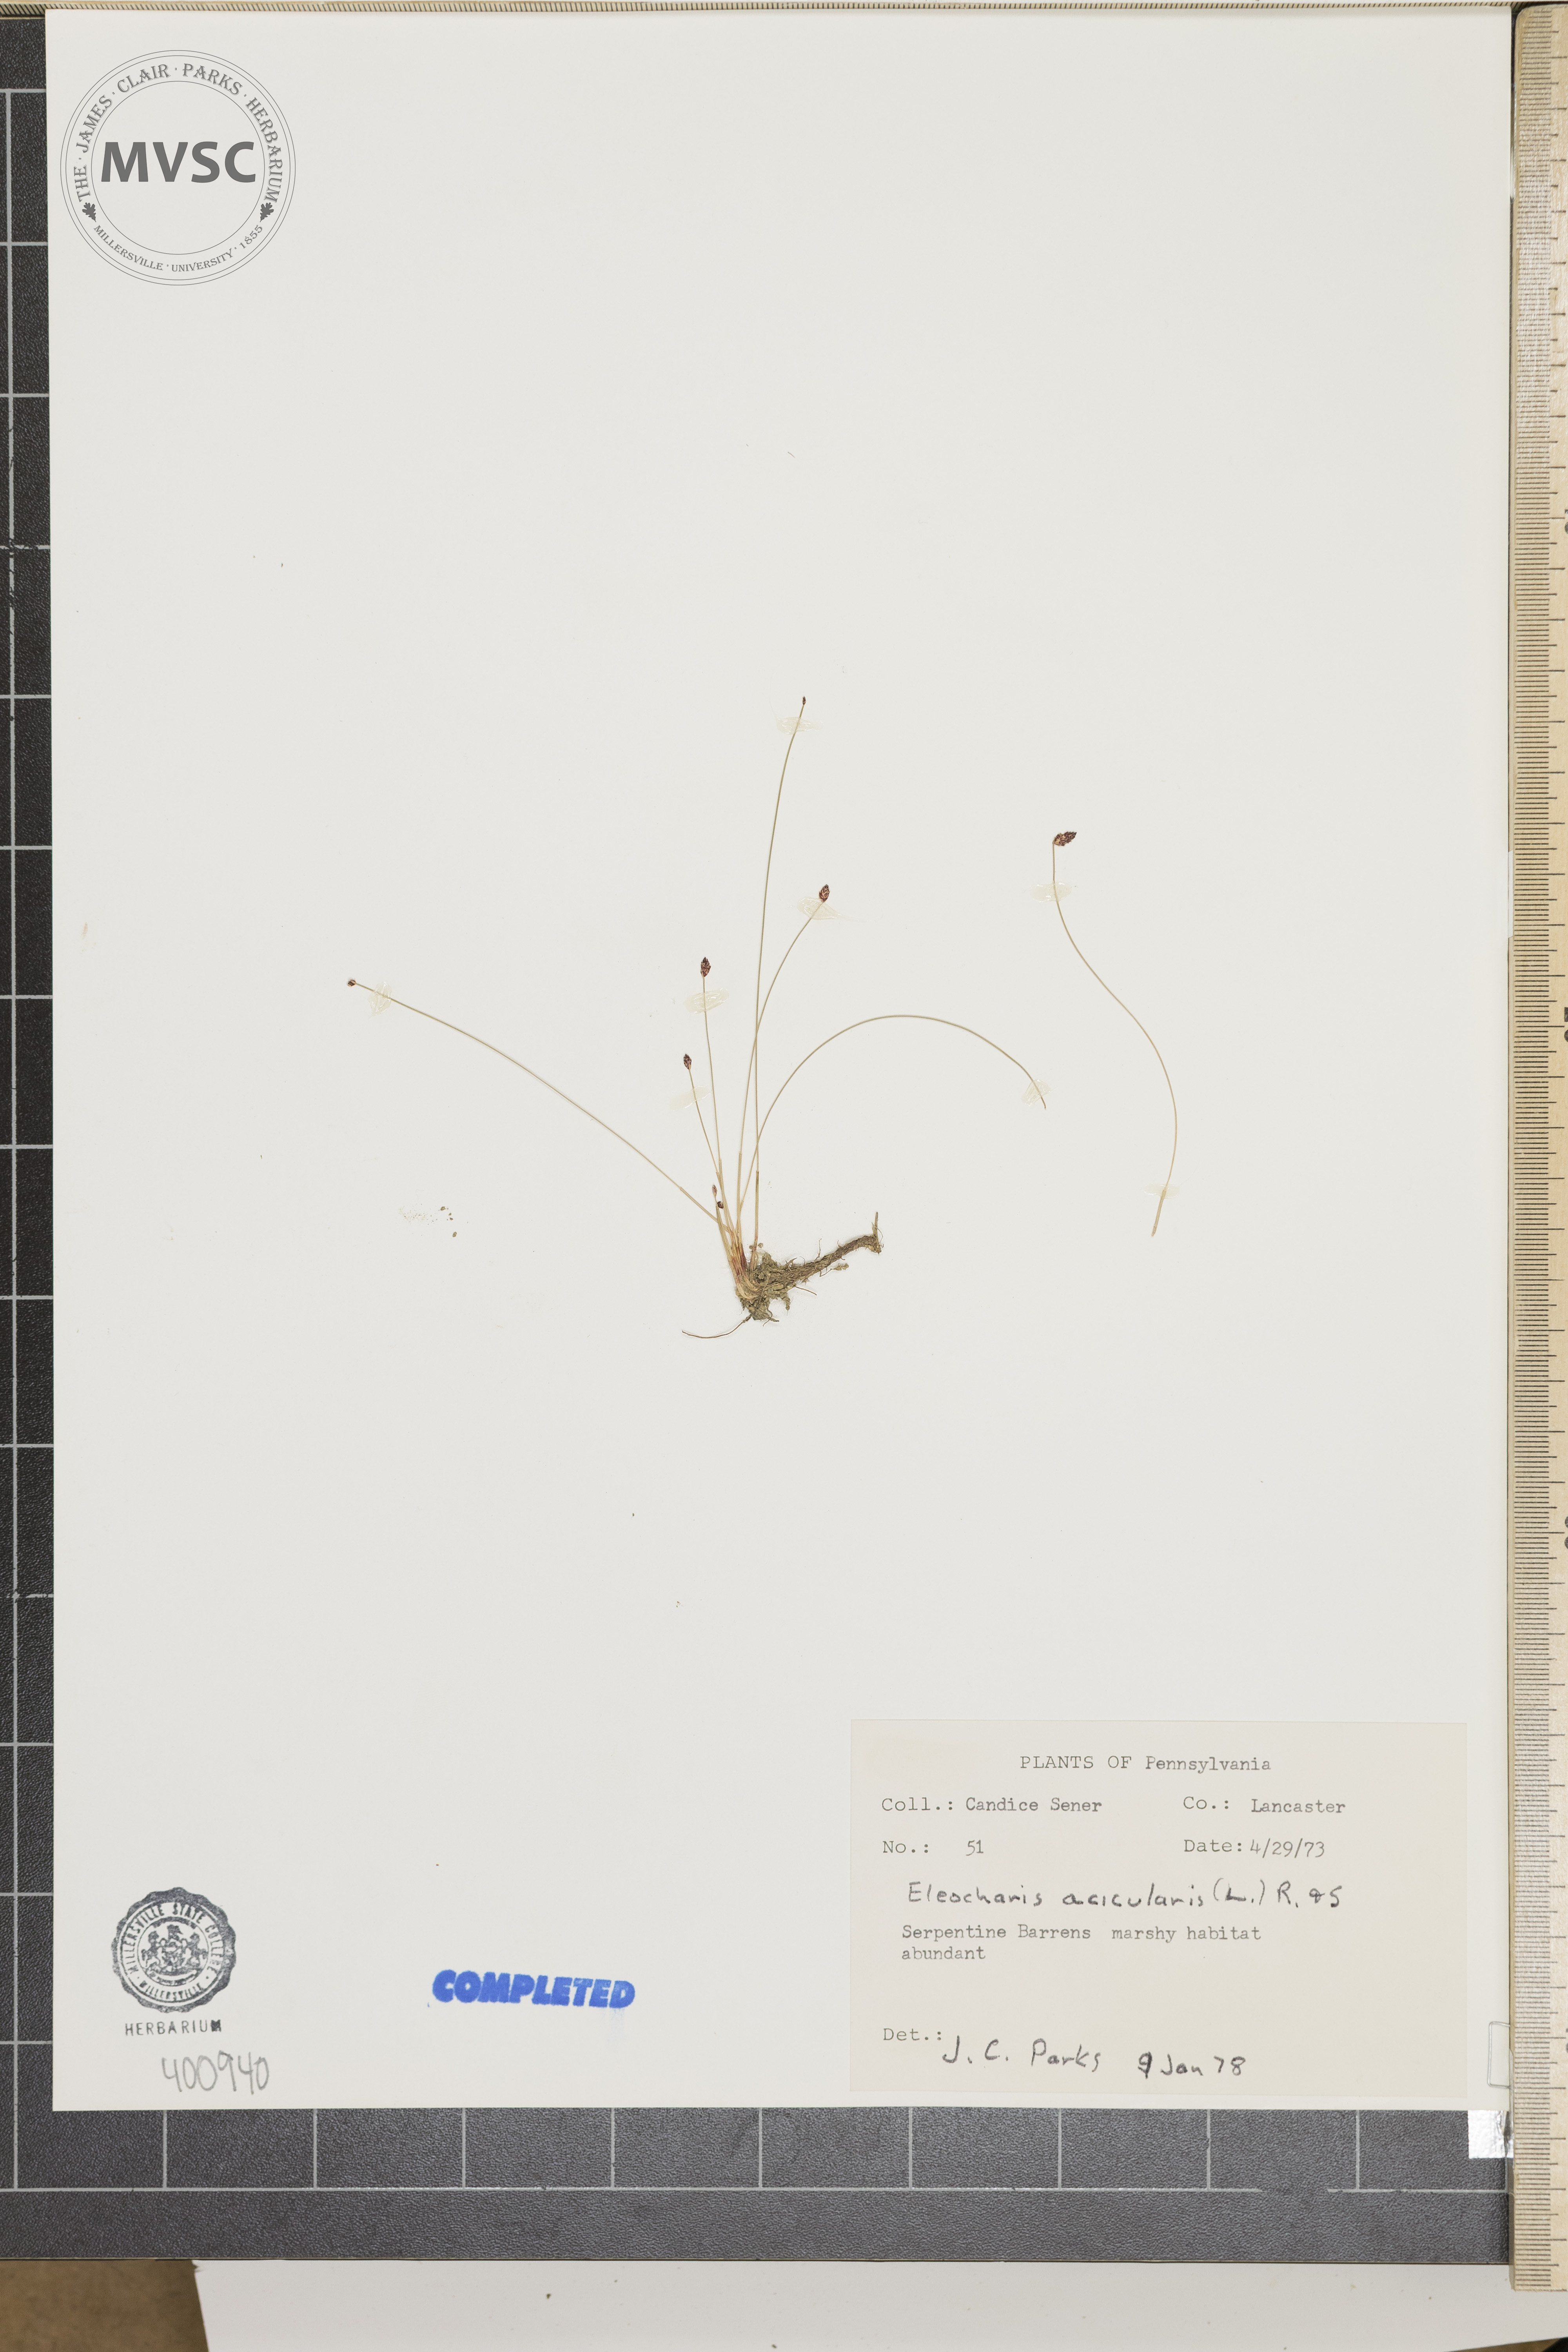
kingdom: Plantae
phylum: Tracheophyta
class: Liliopsida
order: Poales
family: Cyperaceae
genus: Eleocharis
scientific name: Eleocharis acicularis
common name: needle spike-rush
